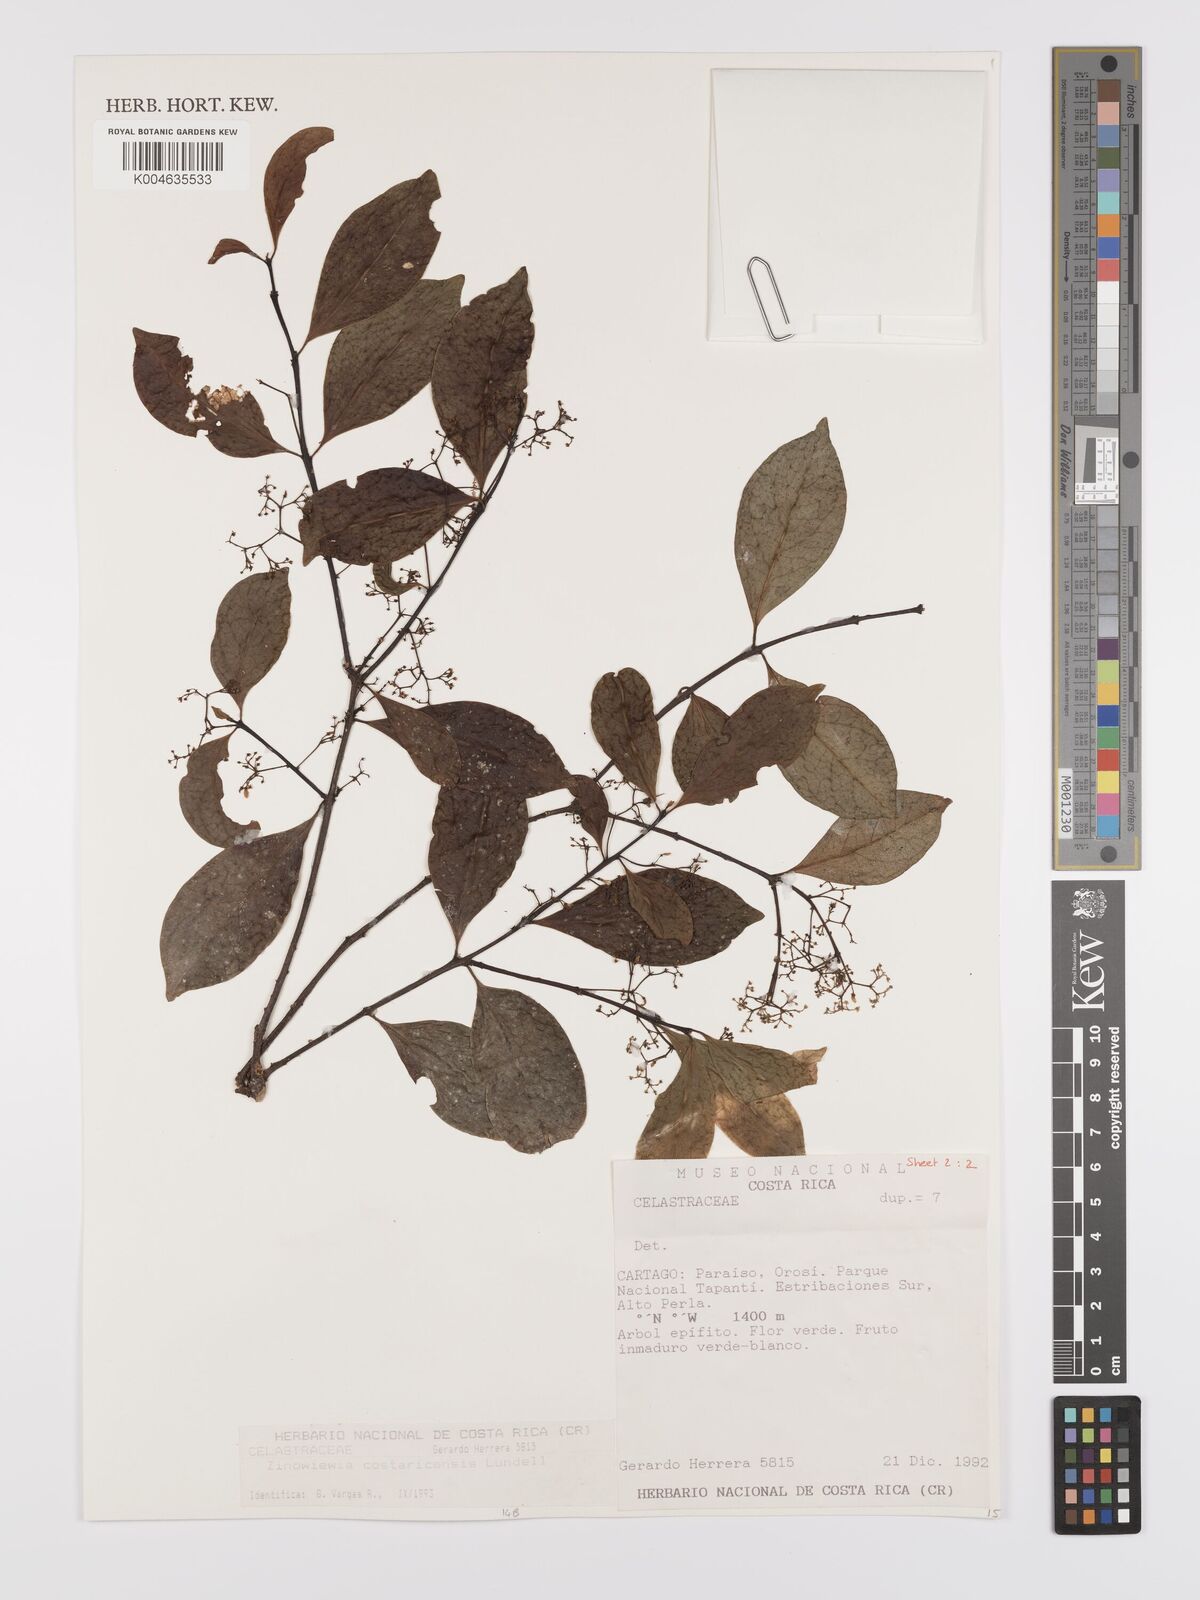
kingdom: Plantae
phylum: Tracheophyta
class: Magnoliopsida
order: Celastrales
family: Celastraceae
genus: Zinowiewia
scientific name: Zinowiewia integerrima
